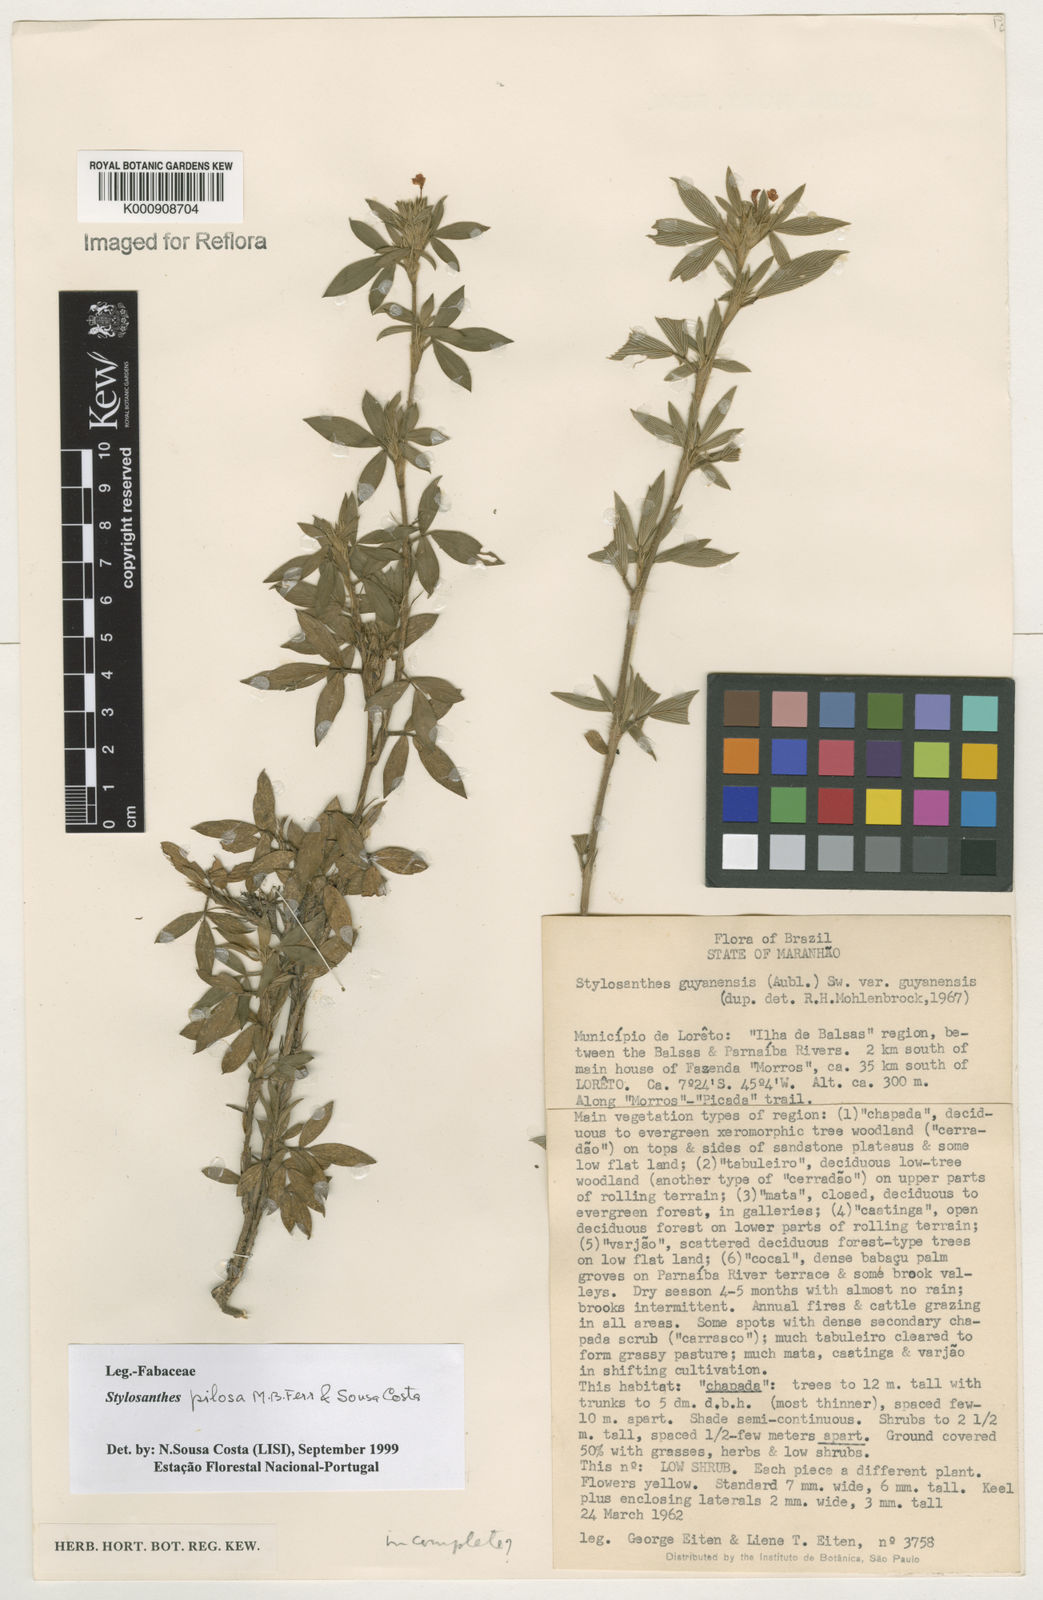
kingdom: Plantae
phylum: Tracheophyta
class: Magnoliopsida
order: Fabales
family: Fabaceae
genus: Stylosanthes
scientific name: Stylosanthes viscosa
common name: Viscid pencil-flower
